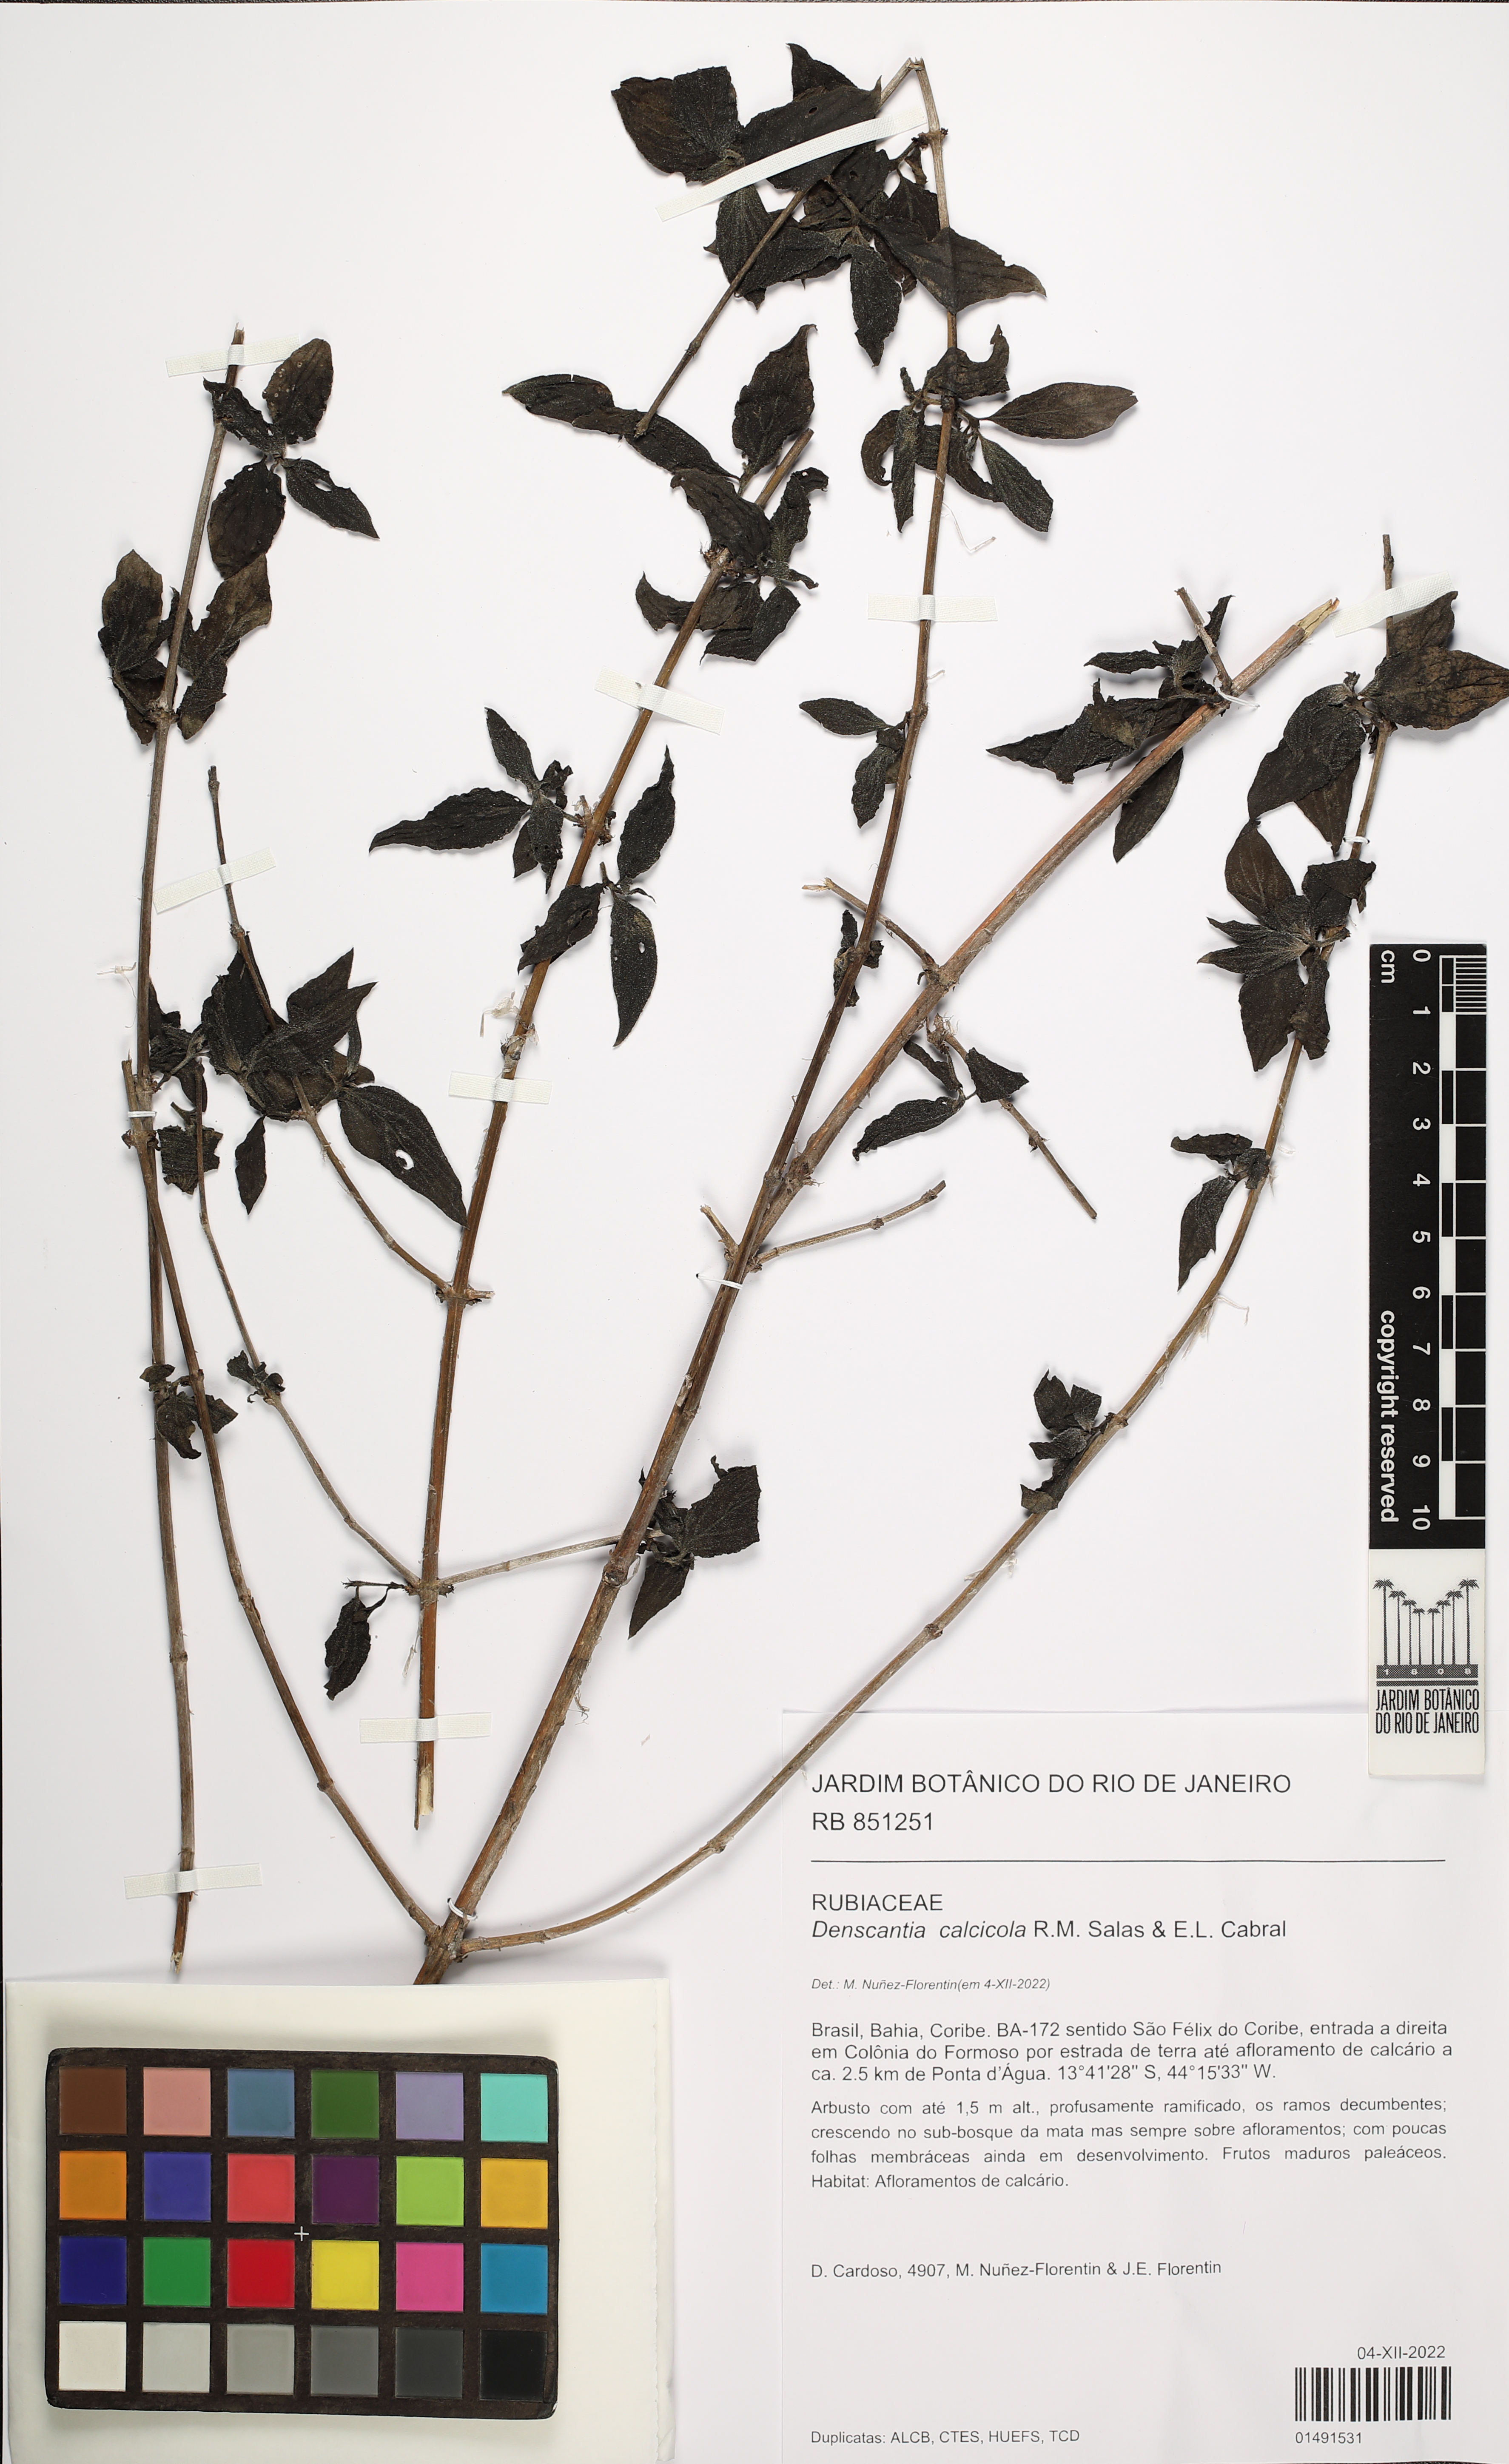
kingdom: Plantae
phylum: Tracheophyta
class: Magnoliopsida
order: Gentianales
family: Rubiaceae
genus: Denscantia
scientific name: Denscantia calcicola
